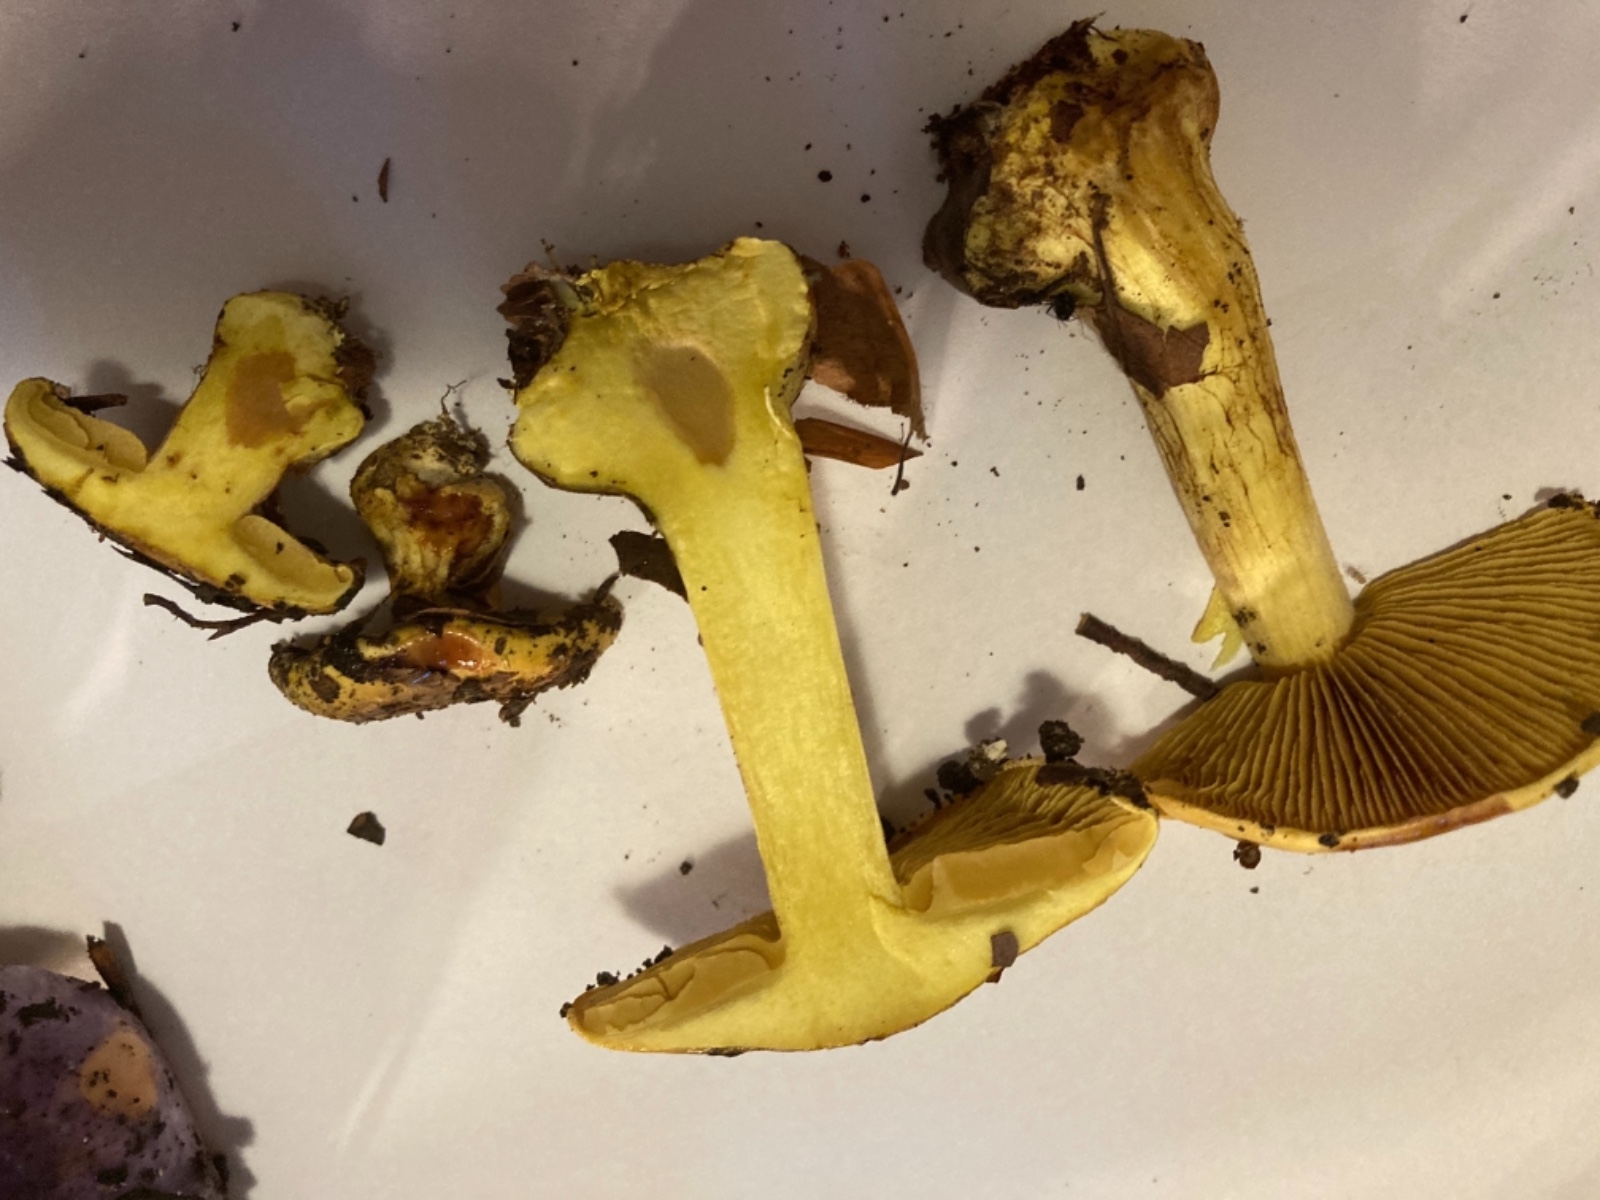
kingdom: Fungi
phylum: Basidiomycota
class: Agaricomycetes
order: Agaricales
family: Cortinariaceae
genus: Calonarius
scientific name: Calonarius splendens
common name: sirene-slørhat
